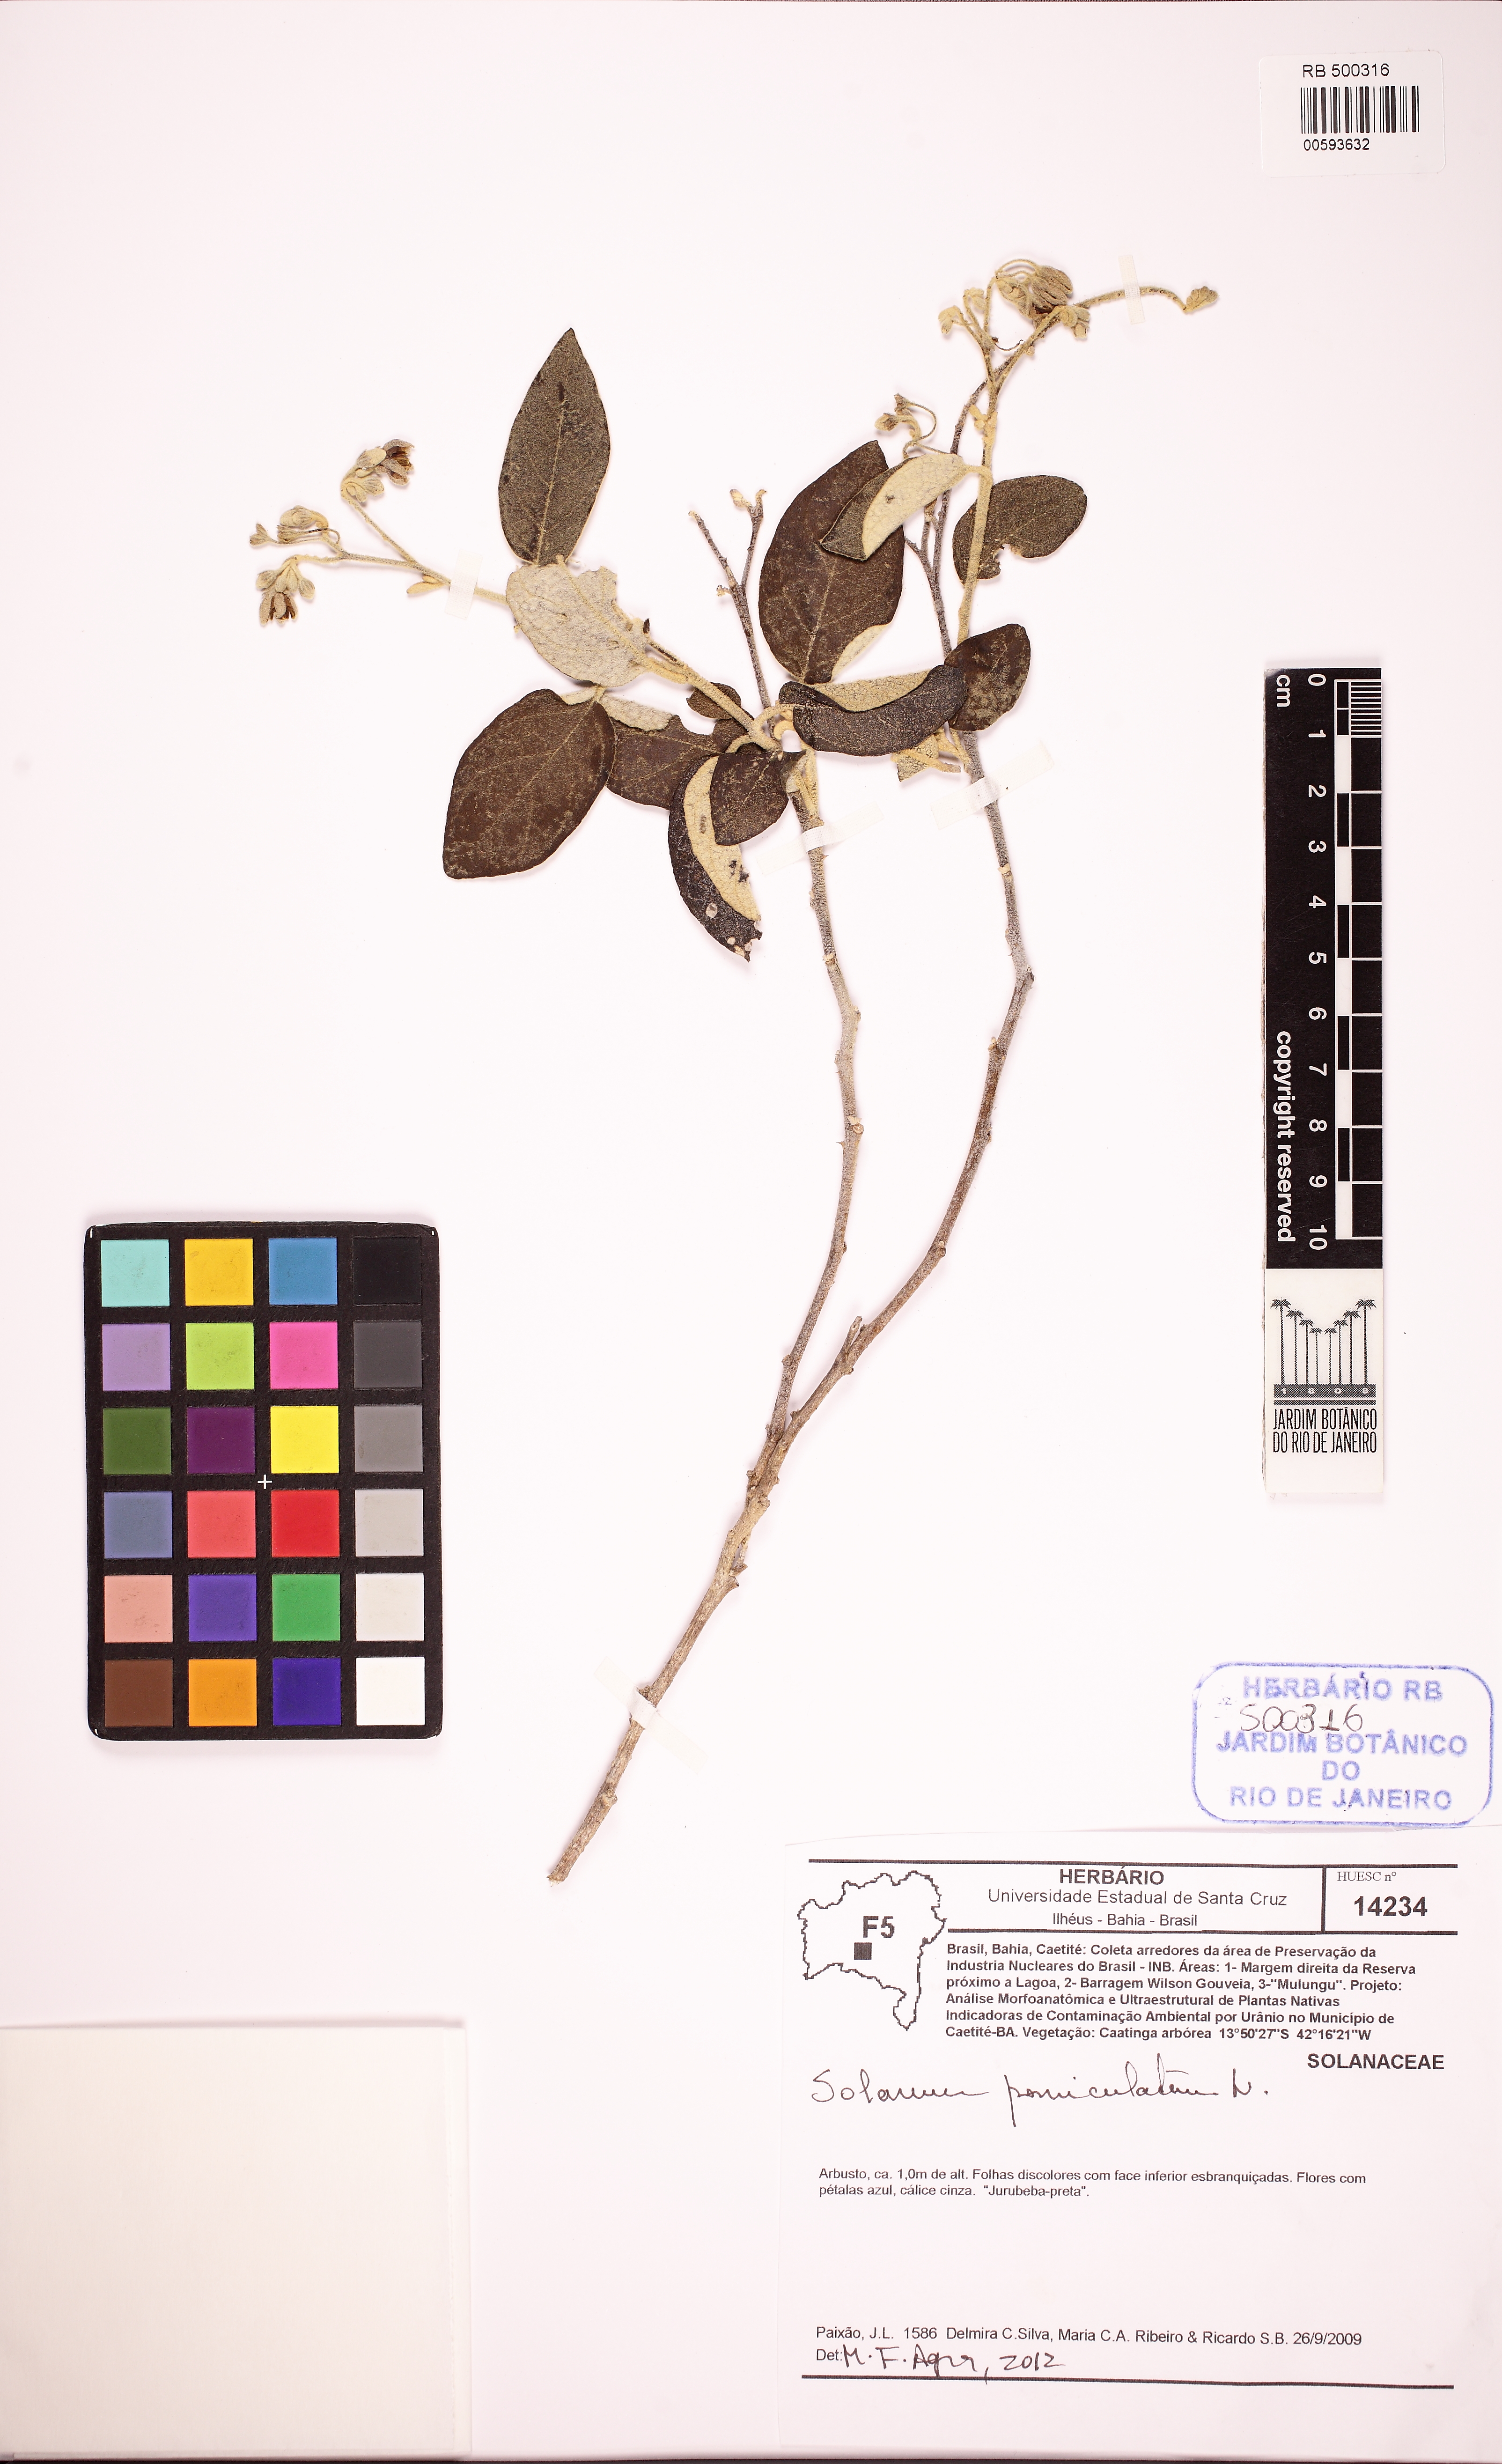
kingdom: Plantae
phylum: Tracheophyta
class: Magnoliopsida
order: Solanales
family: Solanaceae
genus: Solanum
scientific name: Solanum paniculatum
